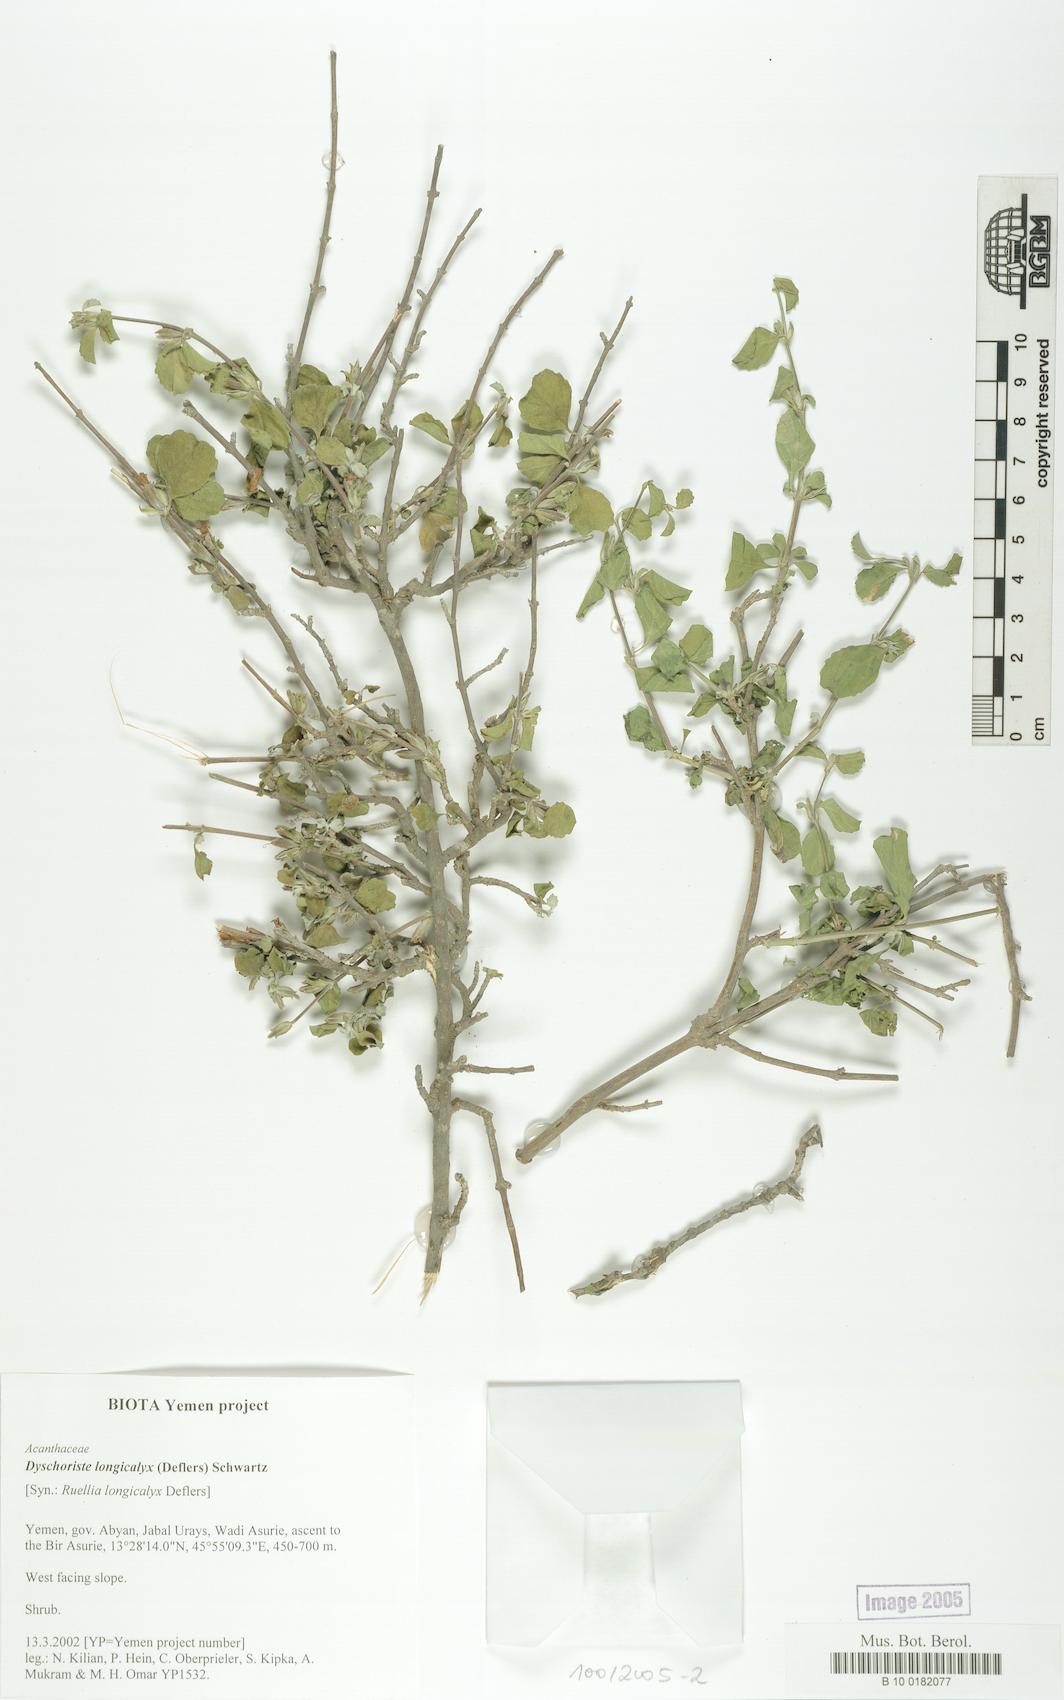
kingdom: Plantae
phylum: Tracheophyta
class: Magnoliopsida
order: Lamiales
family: Acanthaceae
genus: Duosperma
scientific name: Duosperma longicalyx
